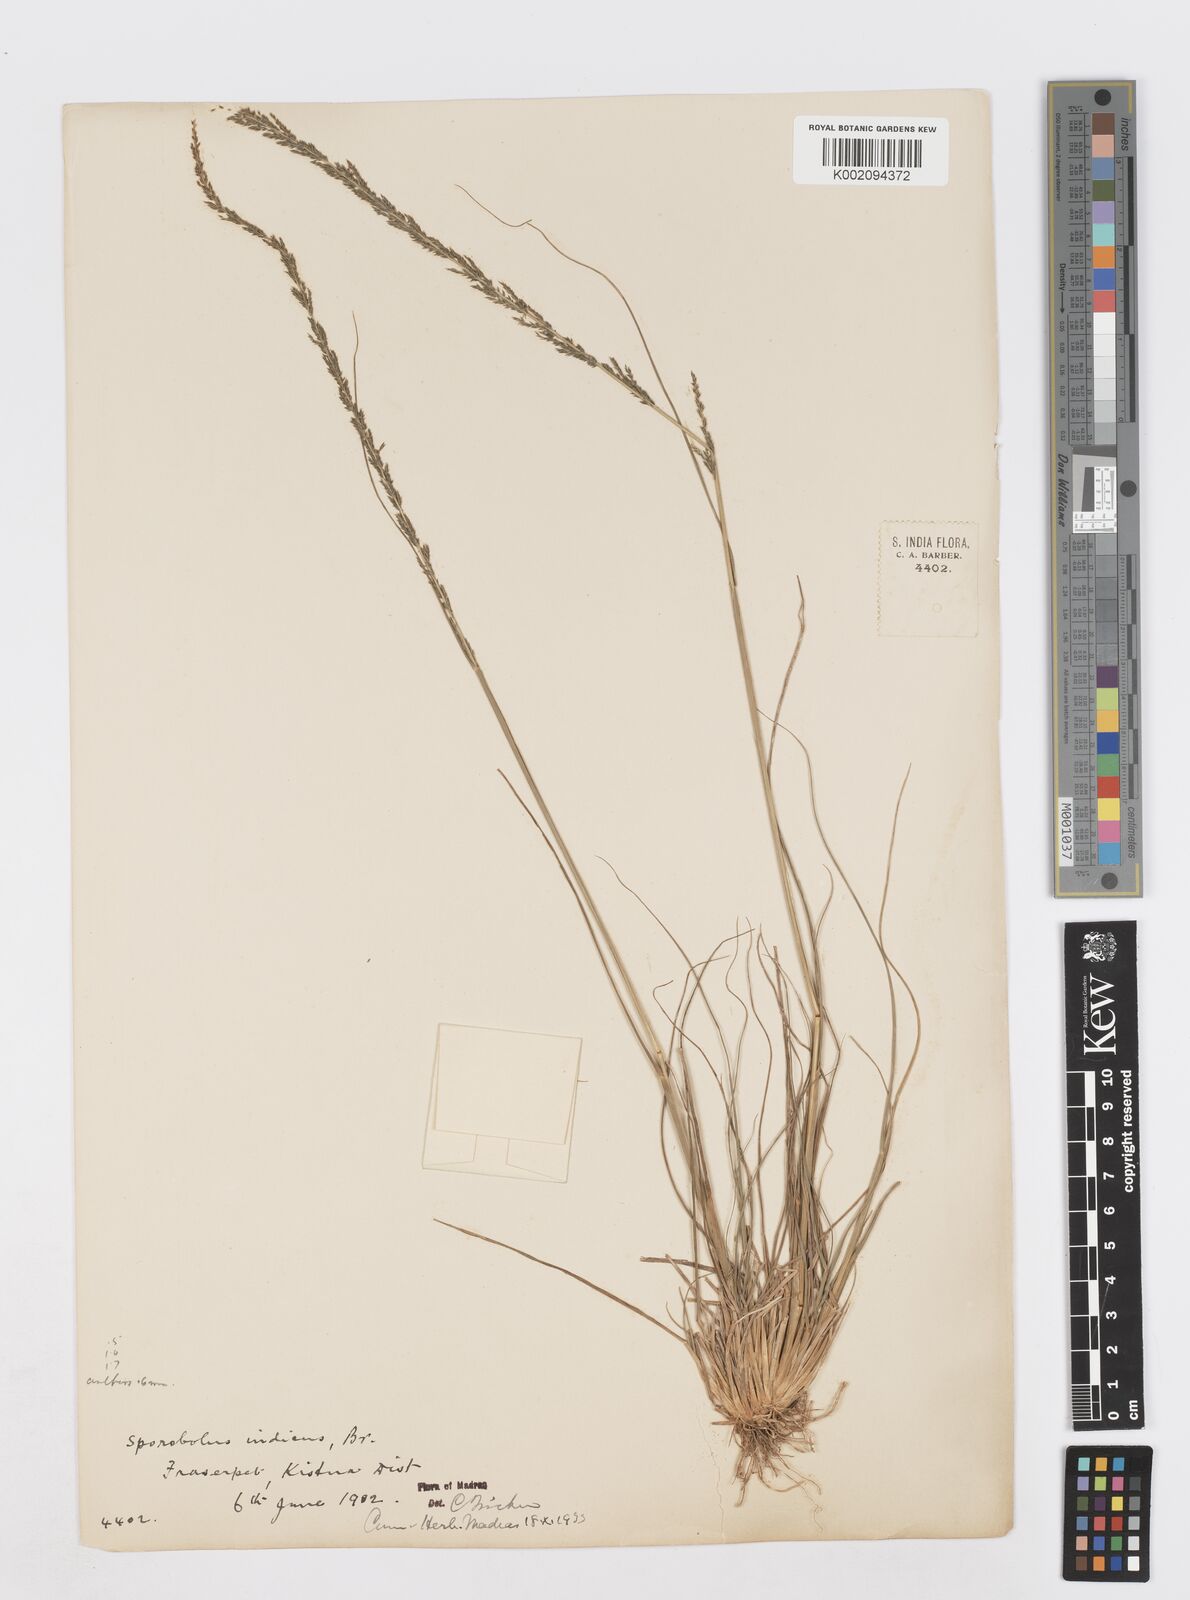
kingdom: Plantae
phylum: Tracheophyta
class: Liliopsida
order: Poales
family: Poaceae
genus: Sporobolus
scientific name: Sporobolus fertilis
